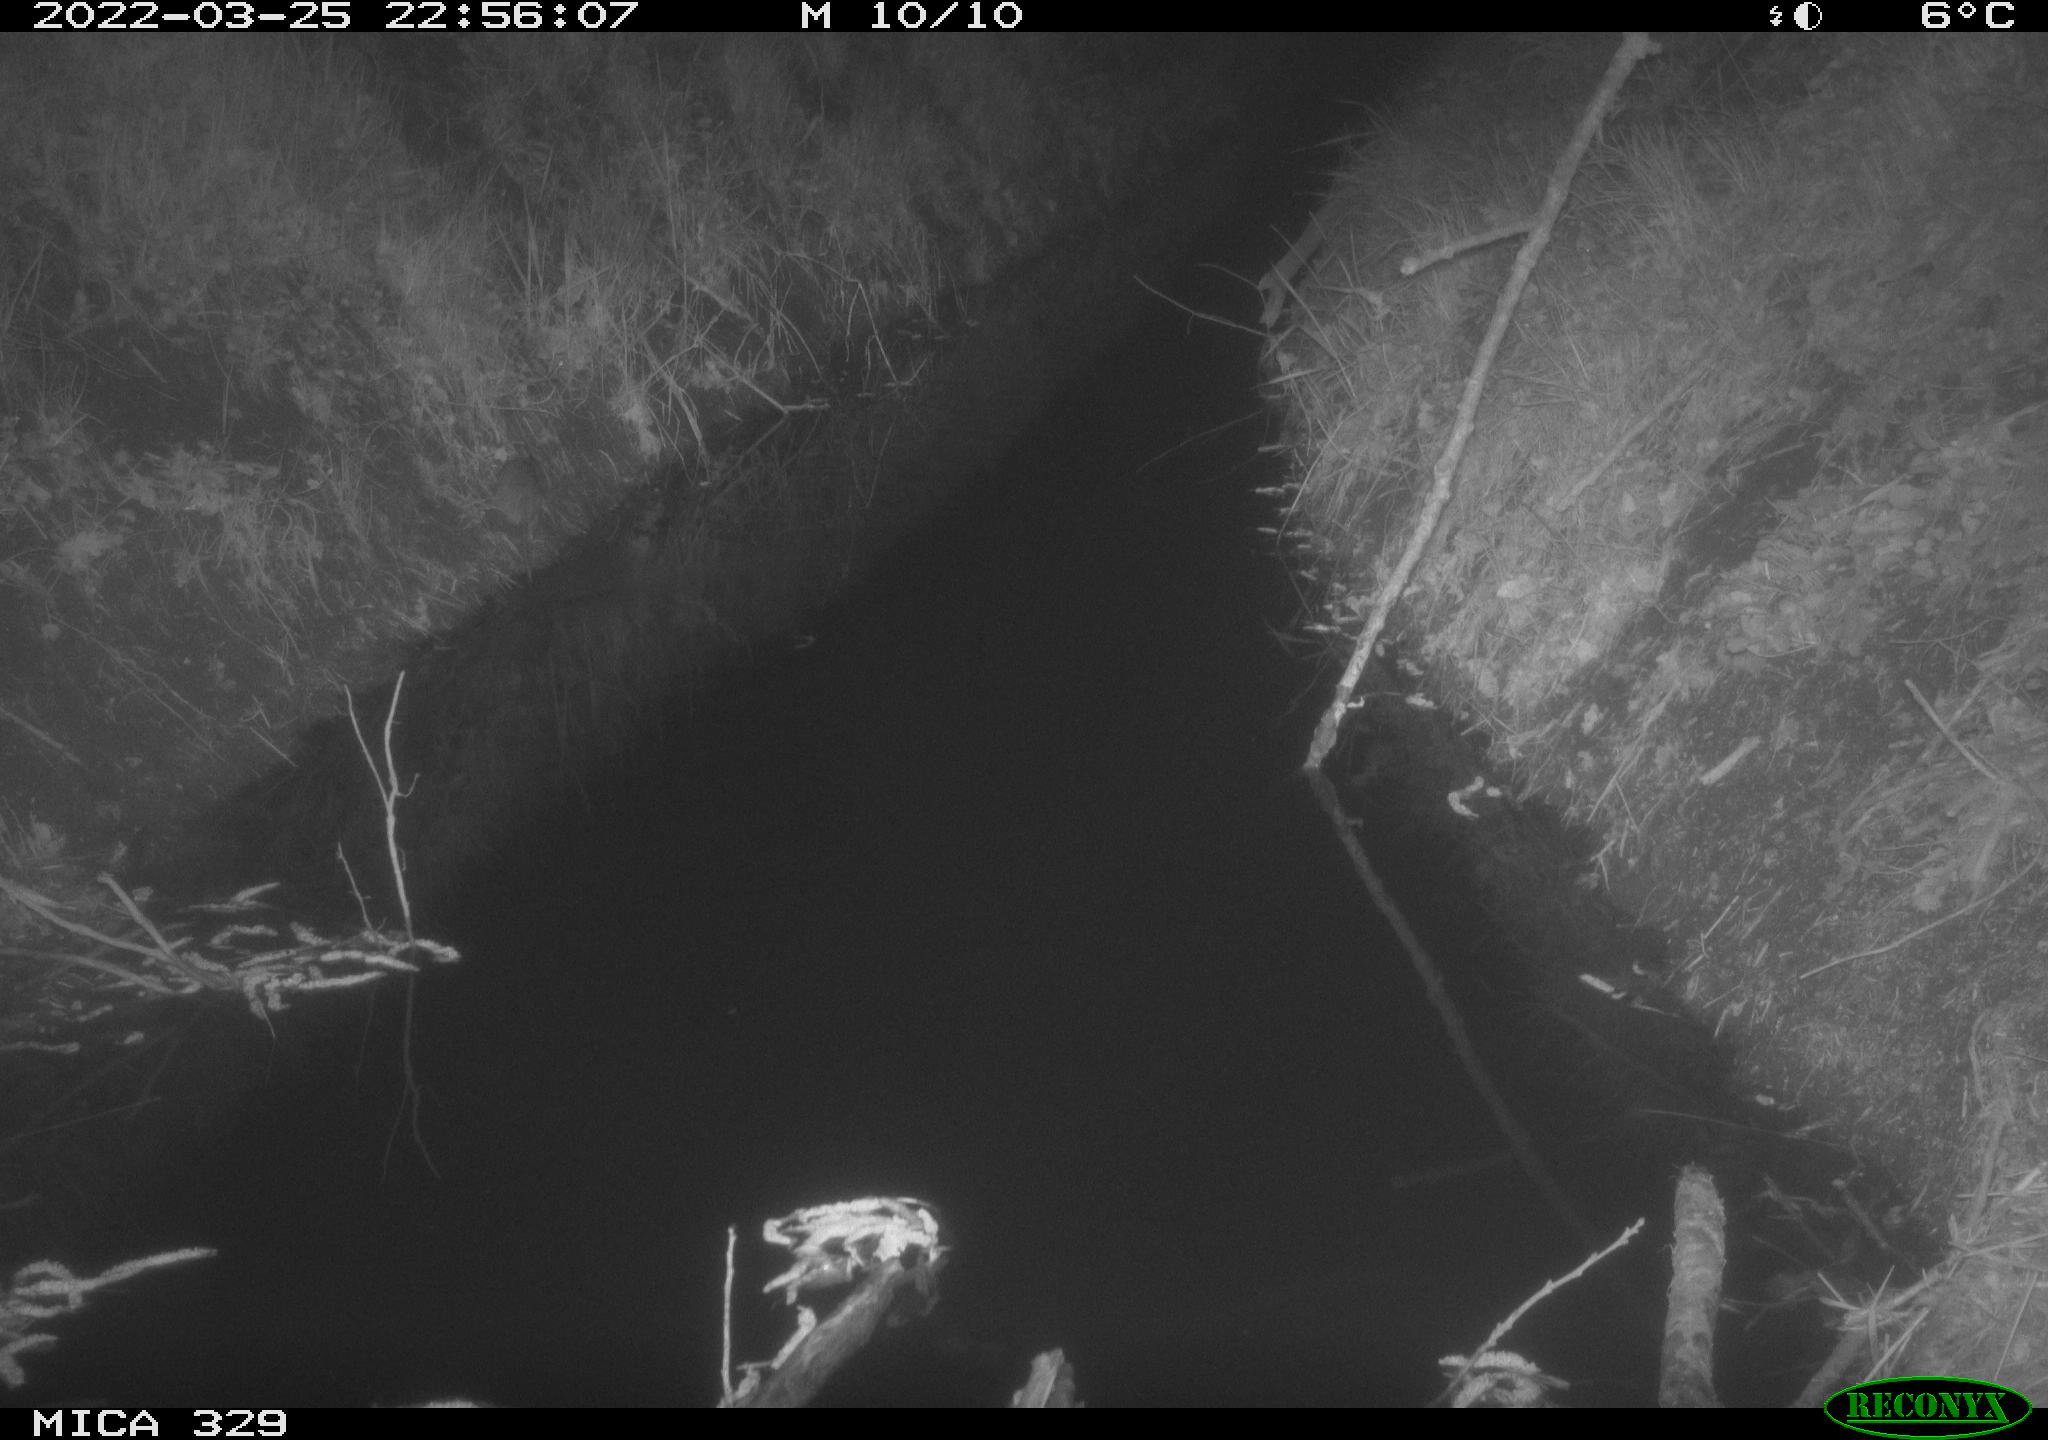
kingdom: Animalia
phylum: Chordata
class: Mammalia
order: Rodentia
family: Muridae
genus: Rattus
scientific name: Rattus norvegicus
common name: Brown rat
